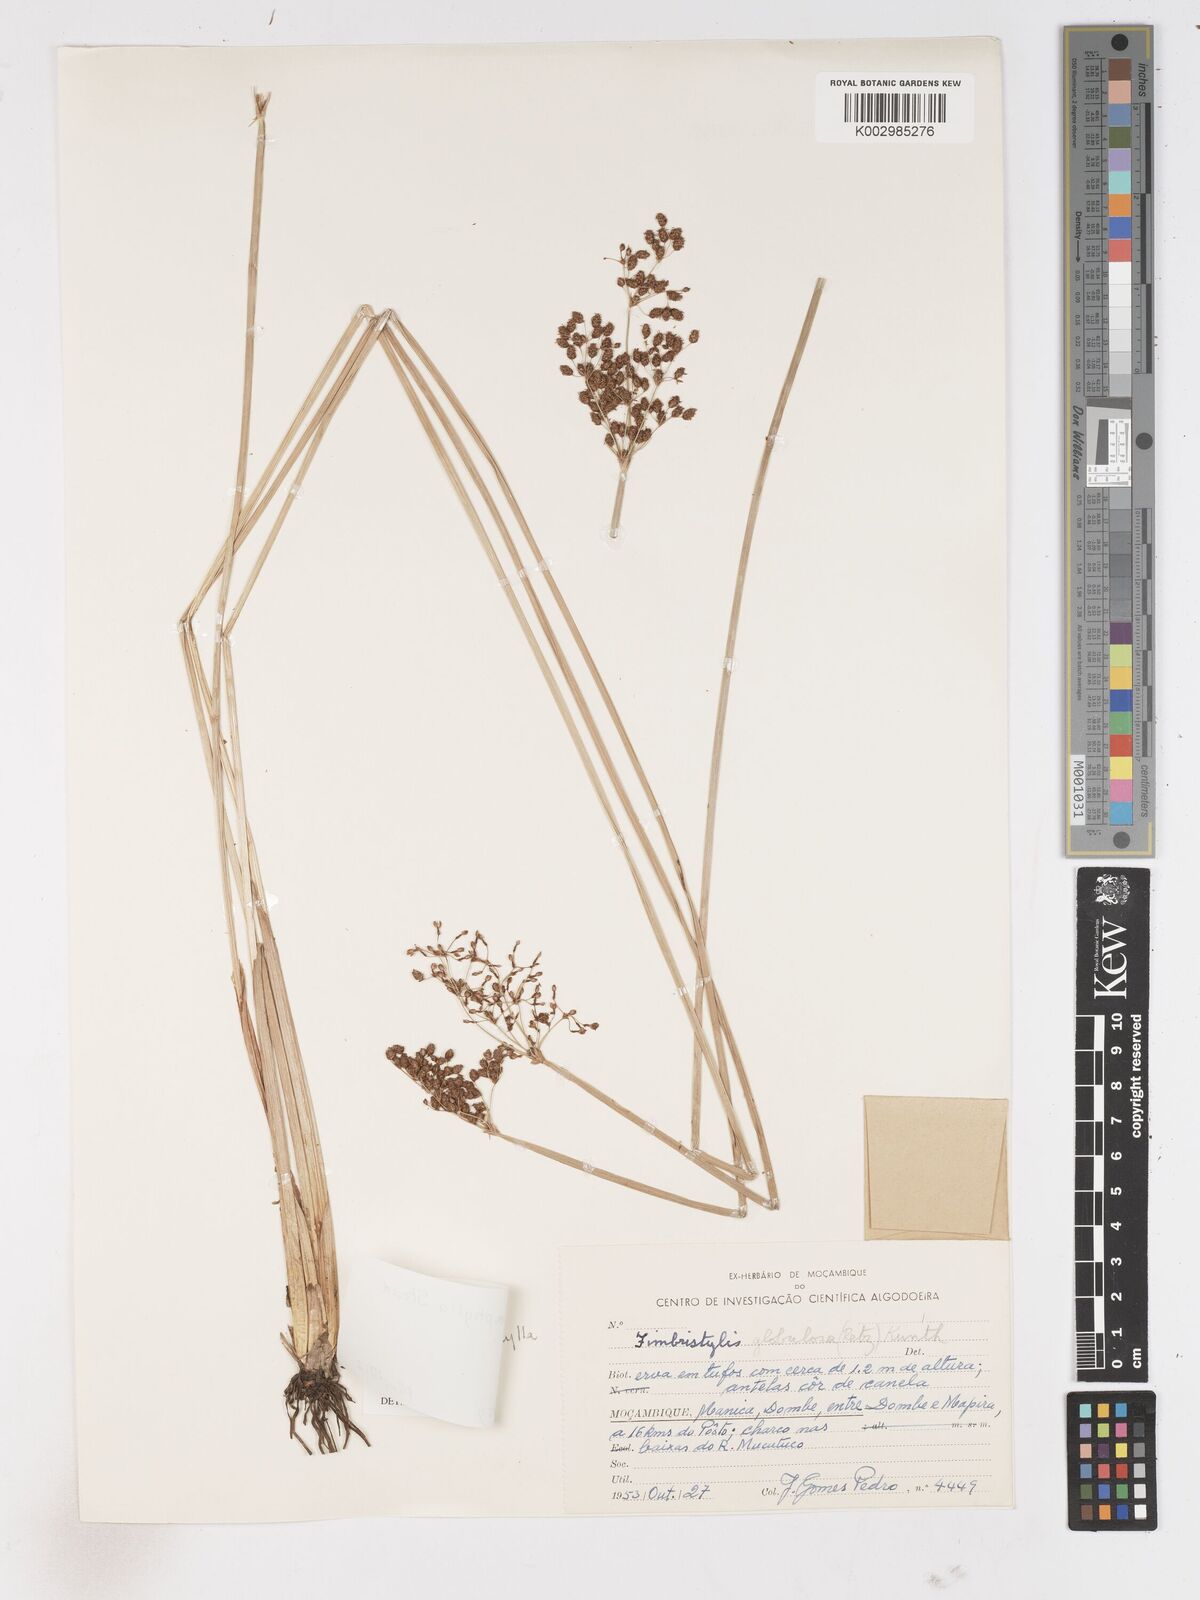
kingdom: Plantae
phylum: Tracheophyta
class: Liliopsida
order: Poales
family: Cyperaceae
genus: Fimbristylis
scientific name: Fimbristylis aphylla
